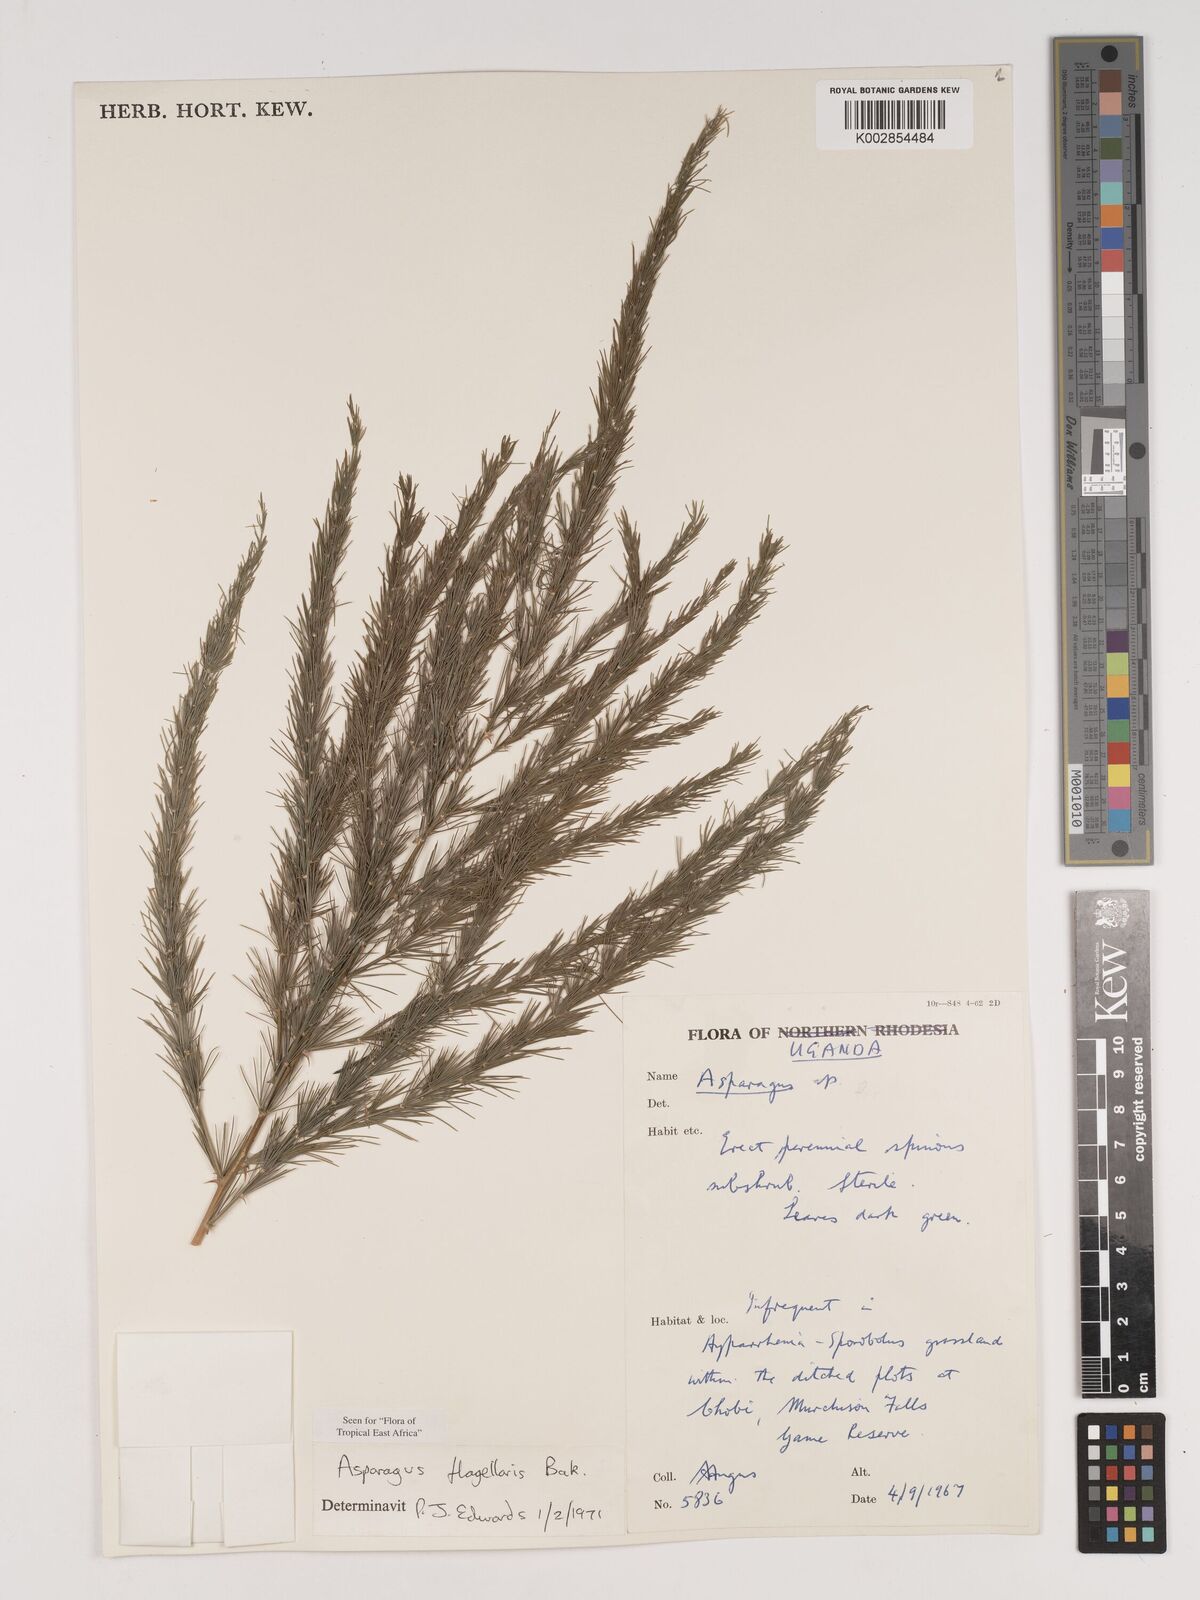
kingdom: Plantae
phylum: Tracheophyta
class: Liliopsida
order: Asparagales
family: Asparagaceae
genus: Asparagus
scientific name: Asparagus flagellaris
